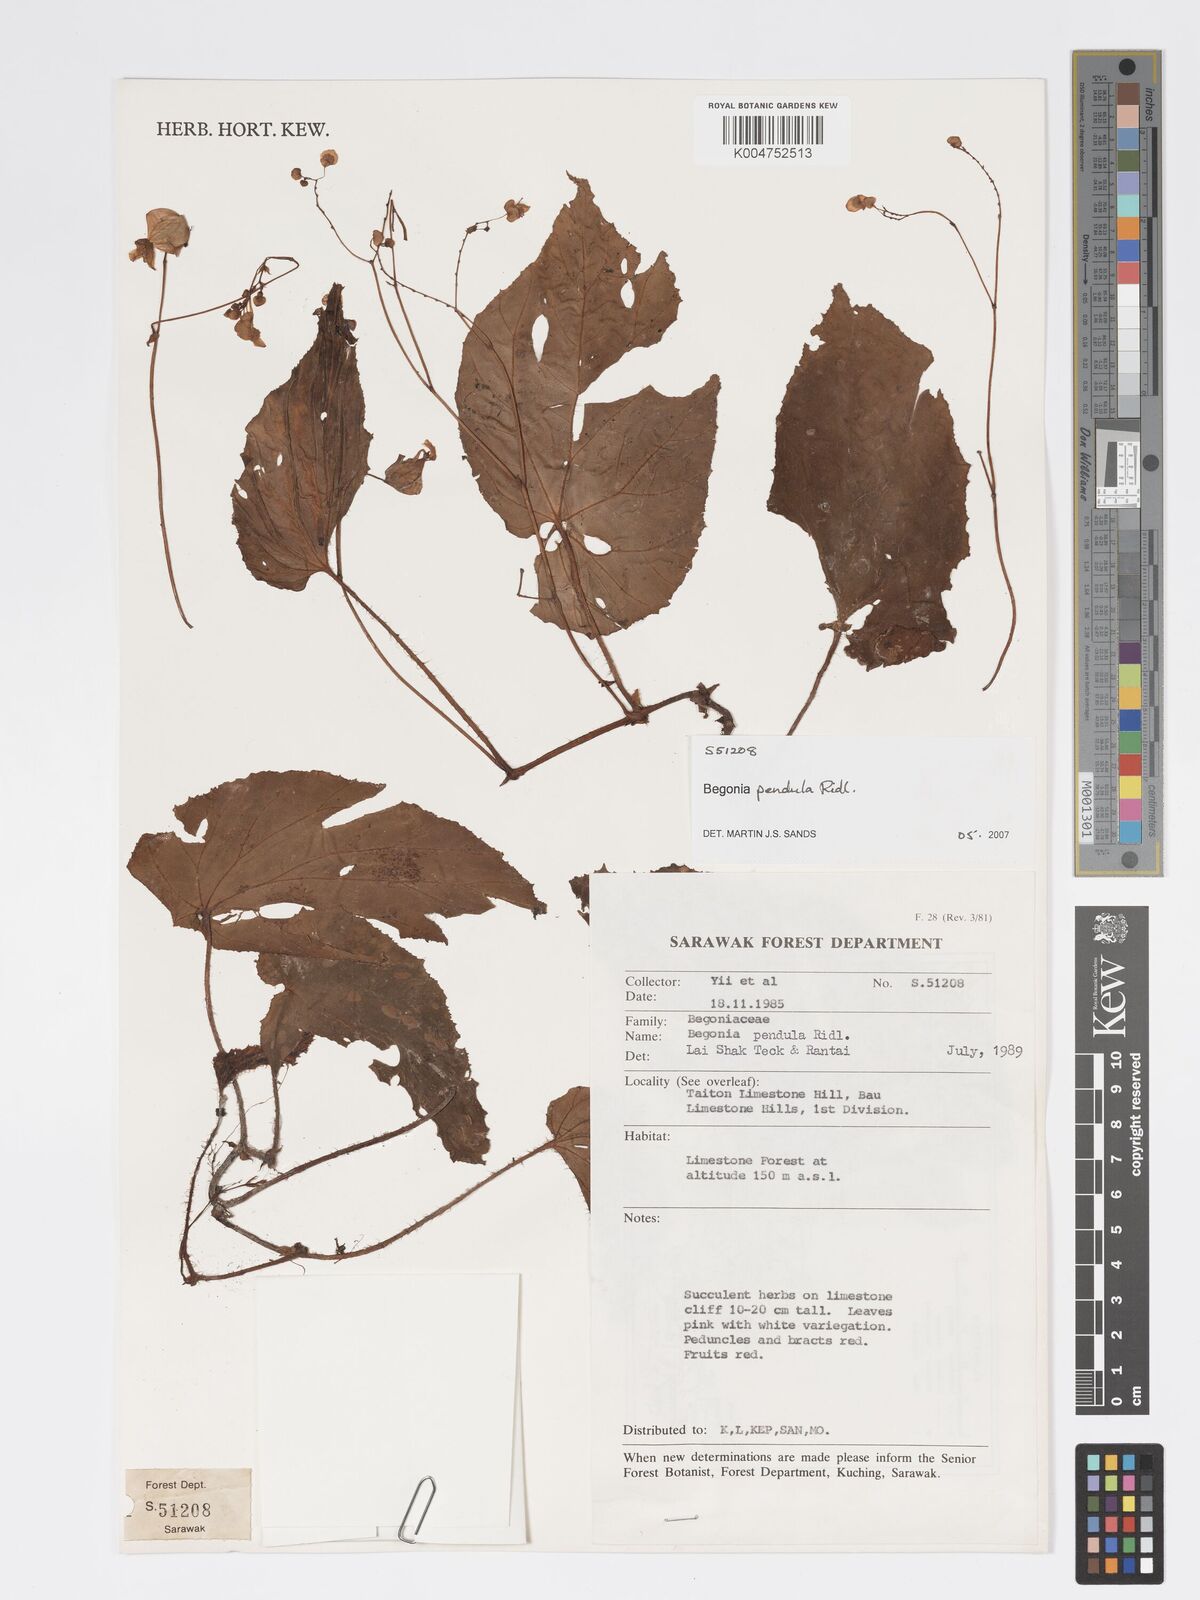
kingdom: Plantae
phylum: Tracheophyta
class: Magnoliopsida
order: Cucurbitales
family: Begoniaceae
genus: Begonia
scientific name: Begonia
